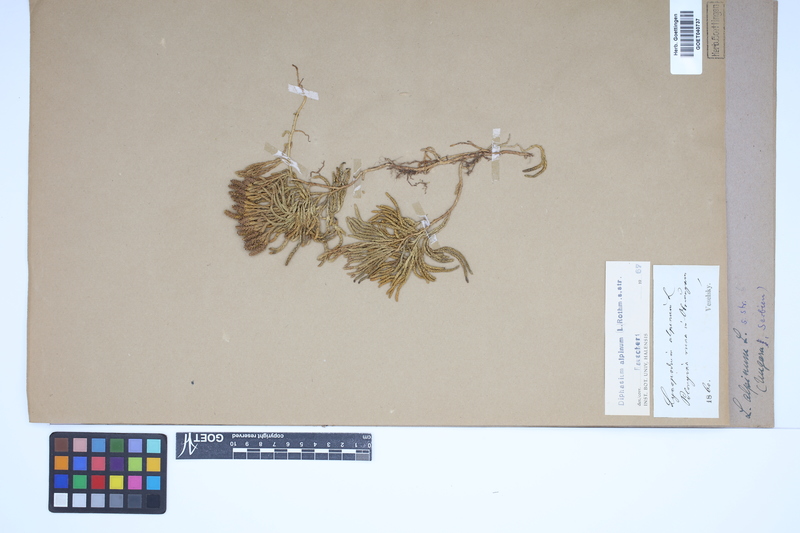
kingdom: Plantae
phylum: Tracheophyta
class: Lycopodiopsida
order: Lycopodiales
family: Lycopodiaceae
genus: Diphasiastrum
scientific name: Diphasiastrum alpinum
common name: Alpine clubmoss
